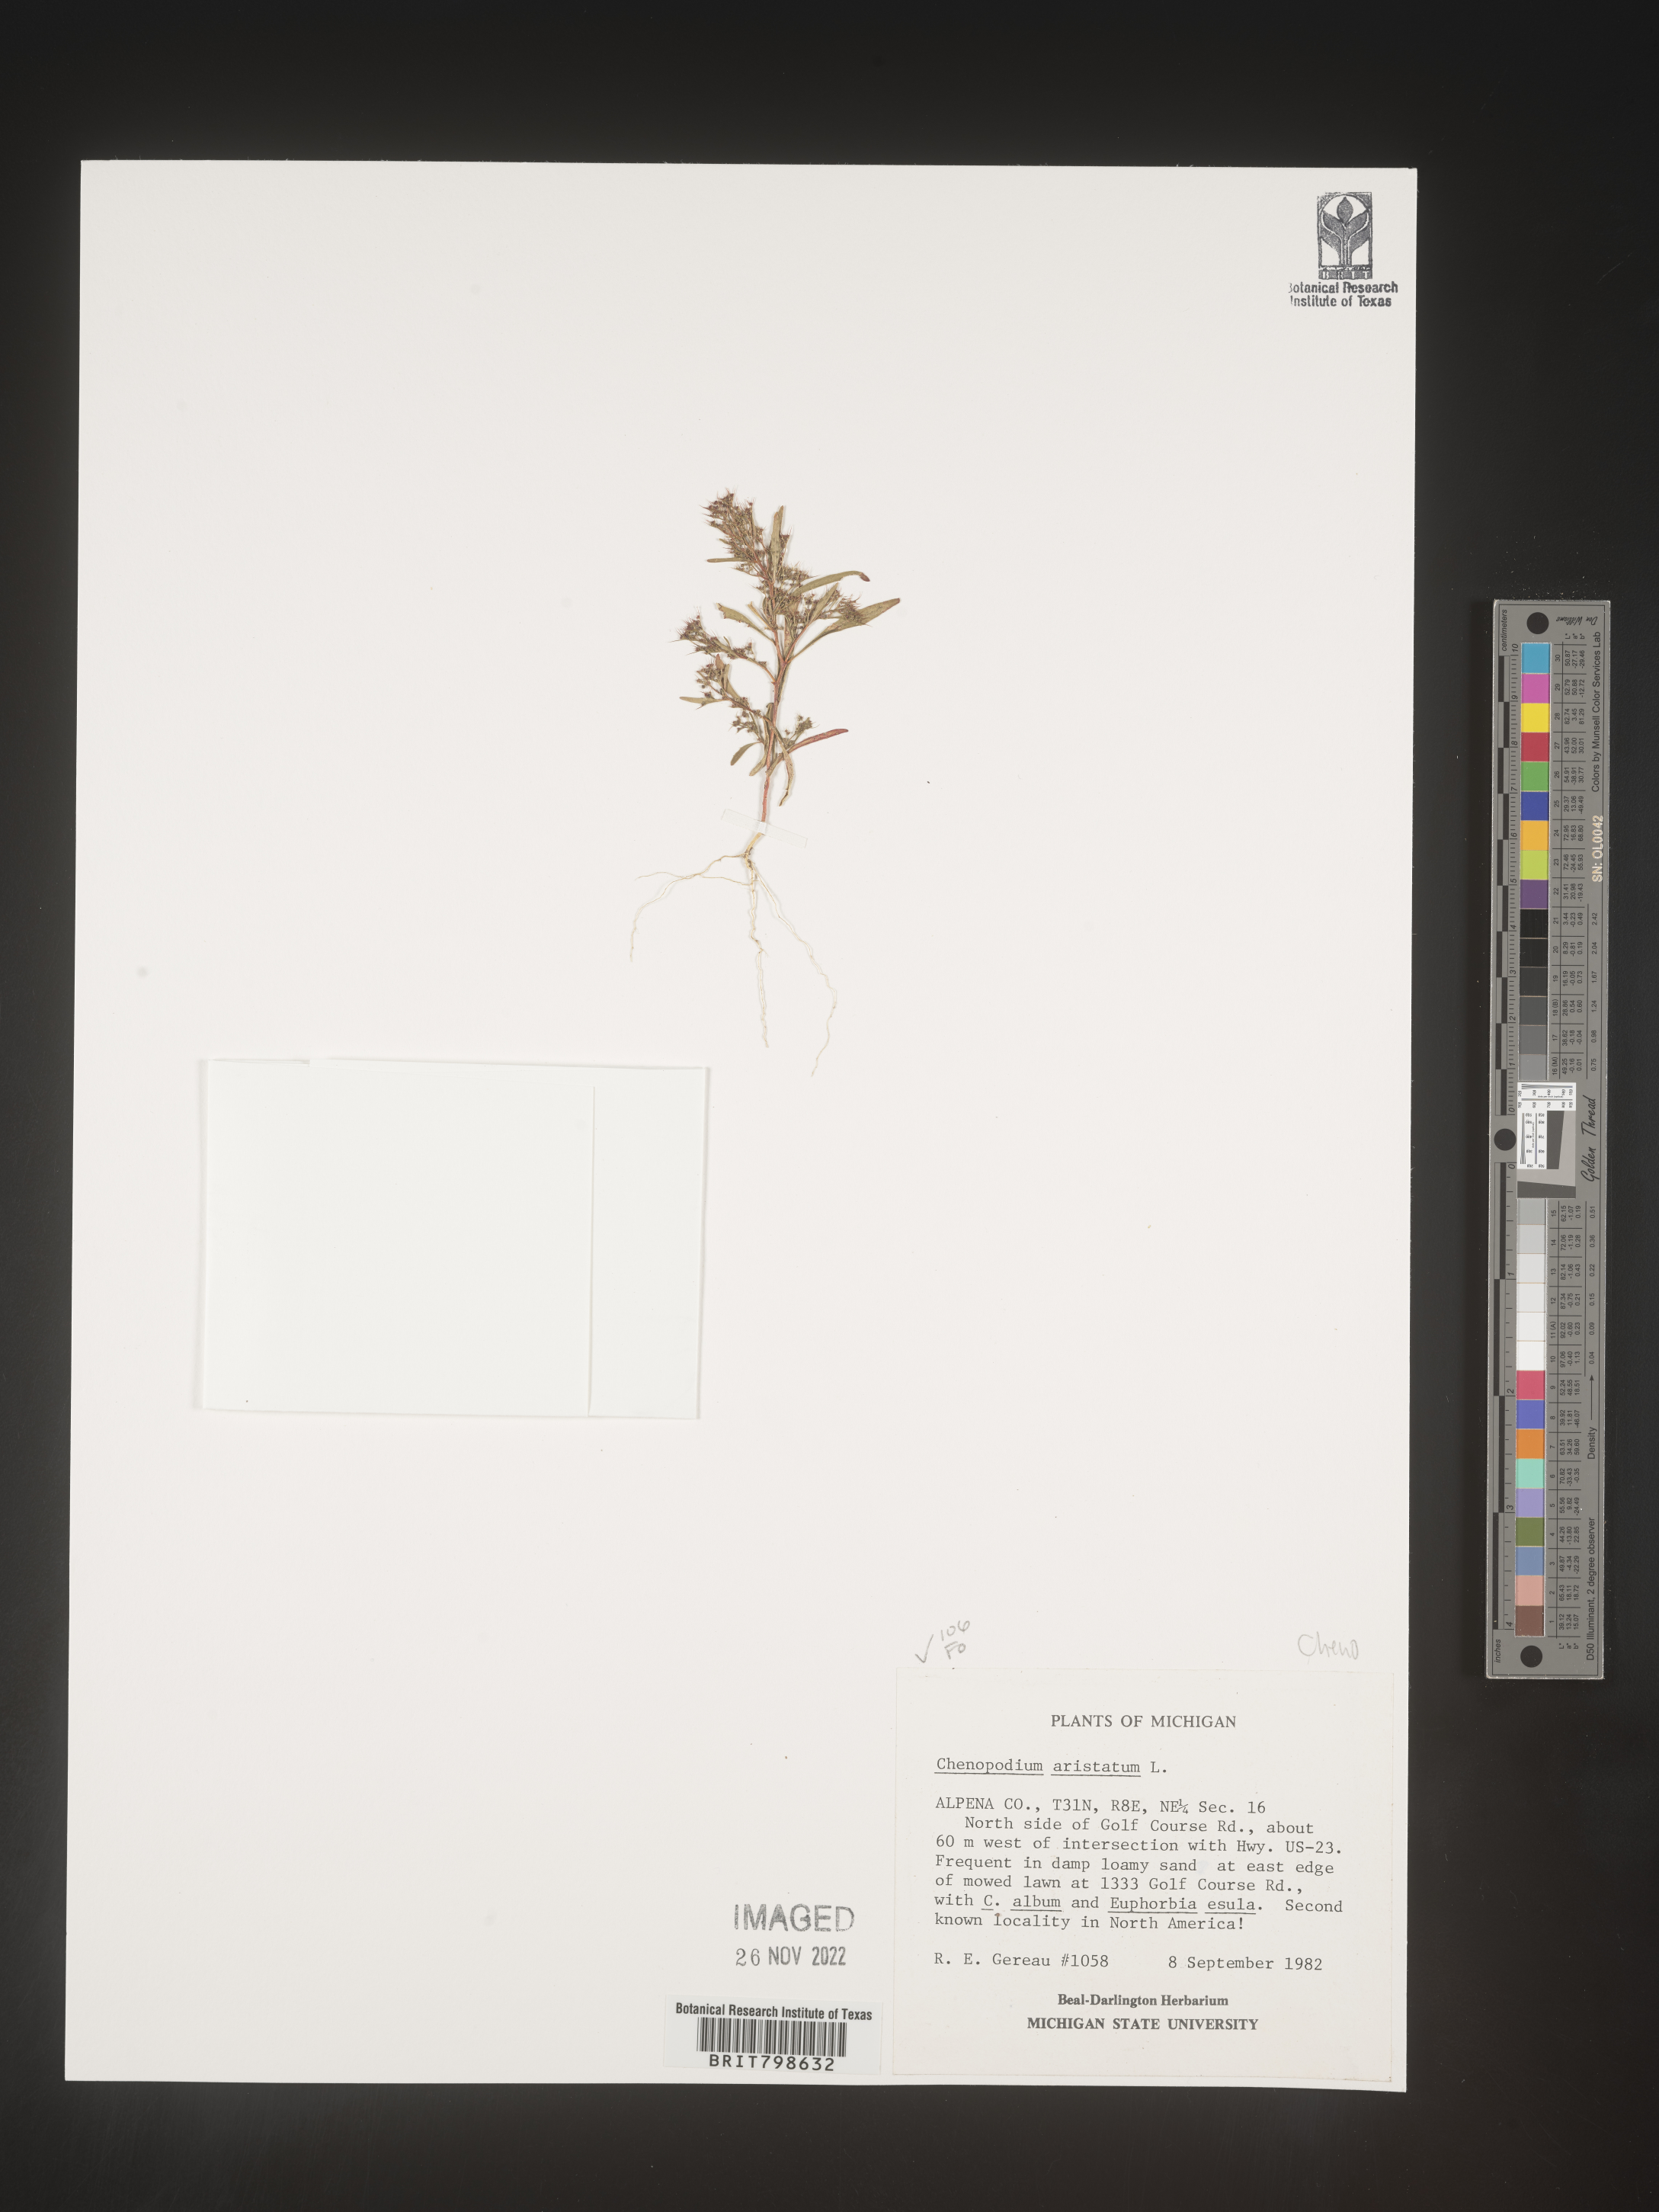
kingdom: Plantae
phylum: Tracheophyta
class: Magnoliopsida
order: Caryophyllales
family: Amaranthaceae
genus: Teloxys
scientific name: Teloxys aristata
